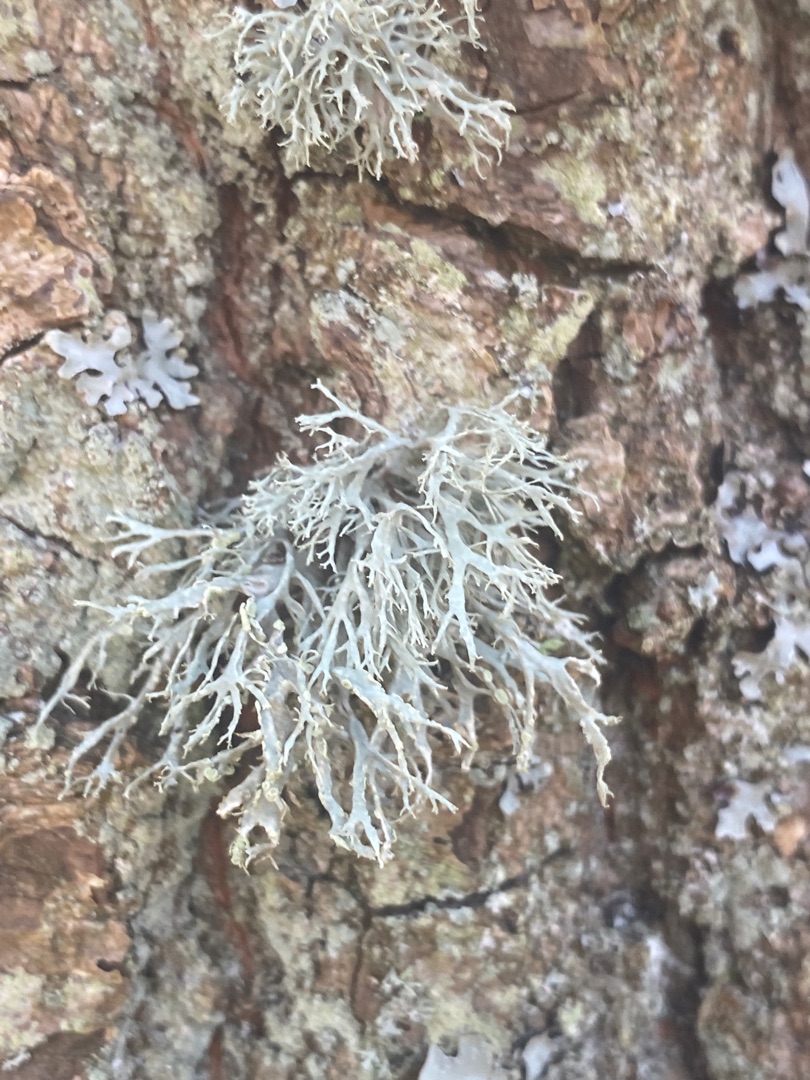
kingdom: Fungi
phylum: Ascomycota
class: Lecanoromycetes
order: Lecanorales
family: Ramalinaceae
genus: Ramalina
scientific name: Ramalina farinacea
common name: Melet grenlav
